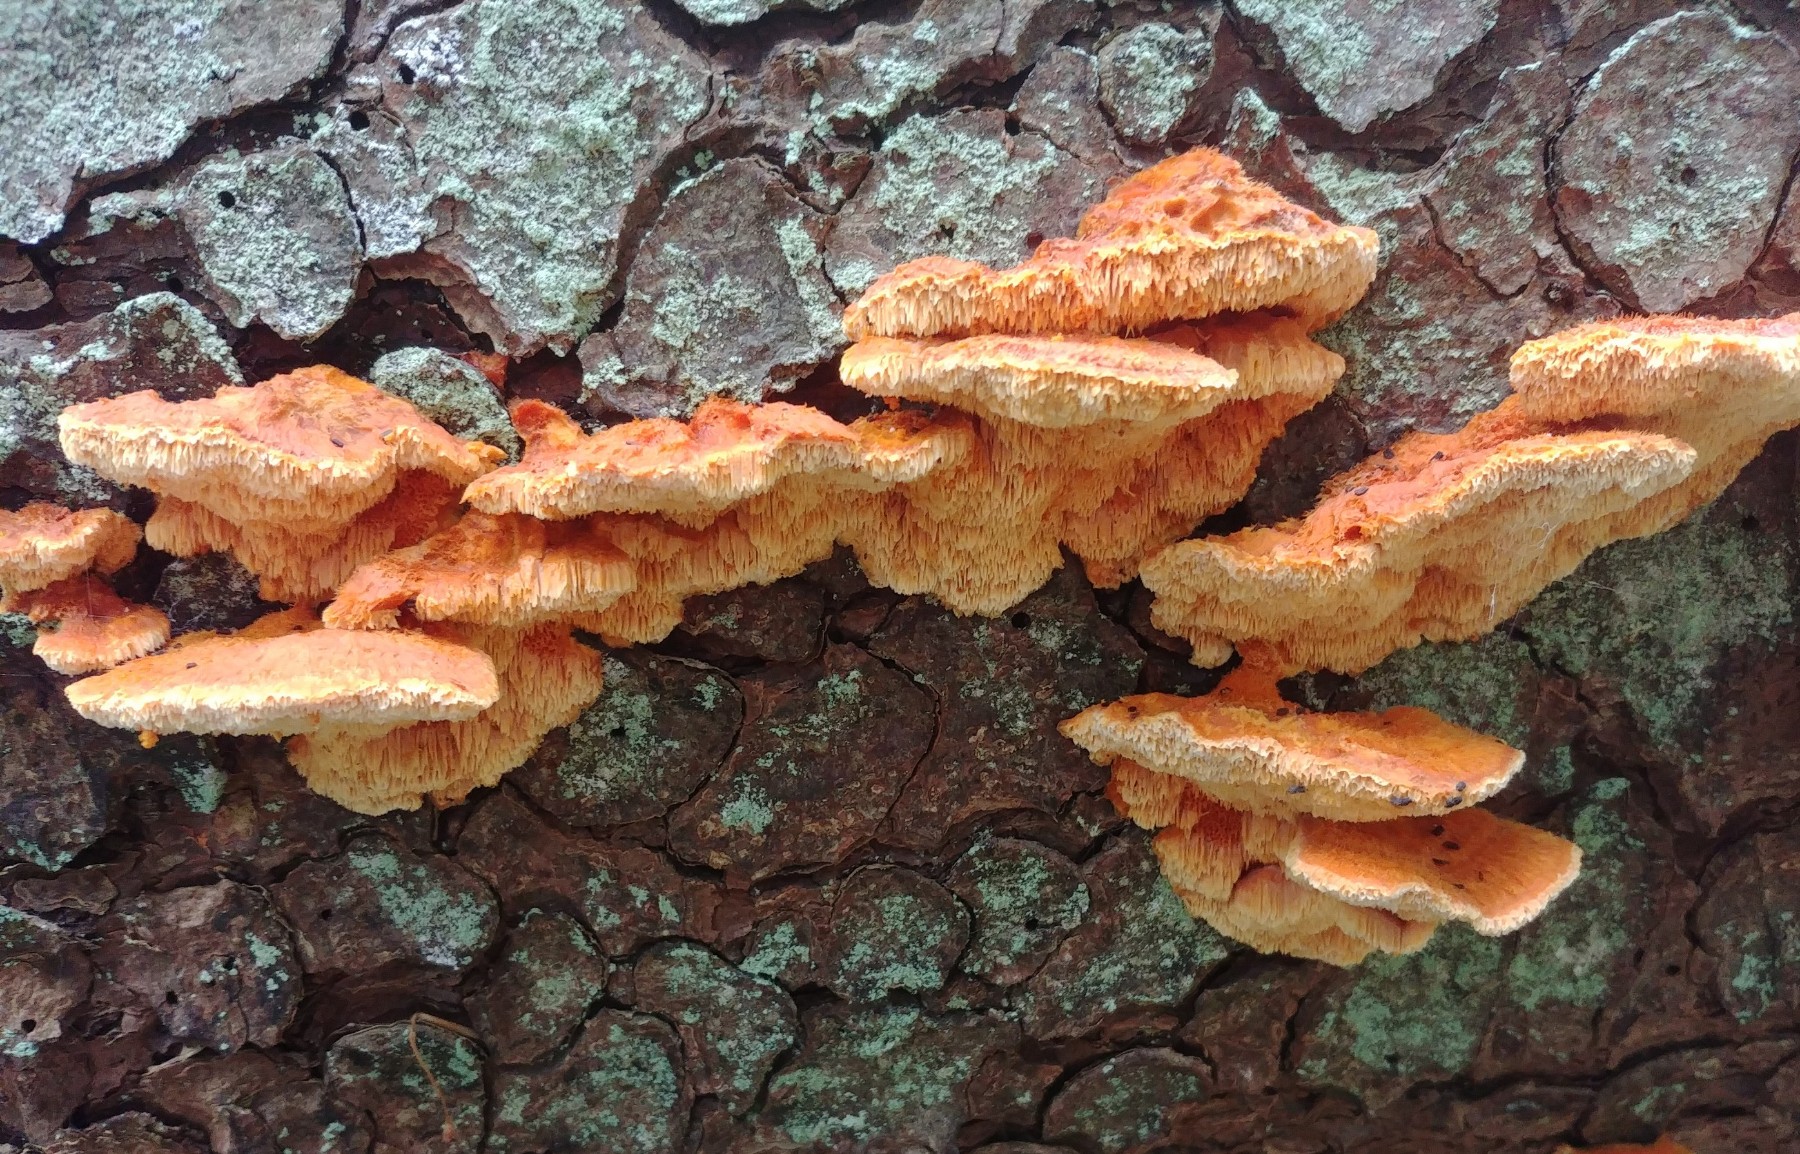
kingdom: Fungi
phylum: Basidiomycota
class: Agaricomycetes
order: Polyporales
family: Pycnoporellaceae
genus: Pycnoporellus
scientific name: Pycnoporellus fulgens
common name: flammeporesvamp
